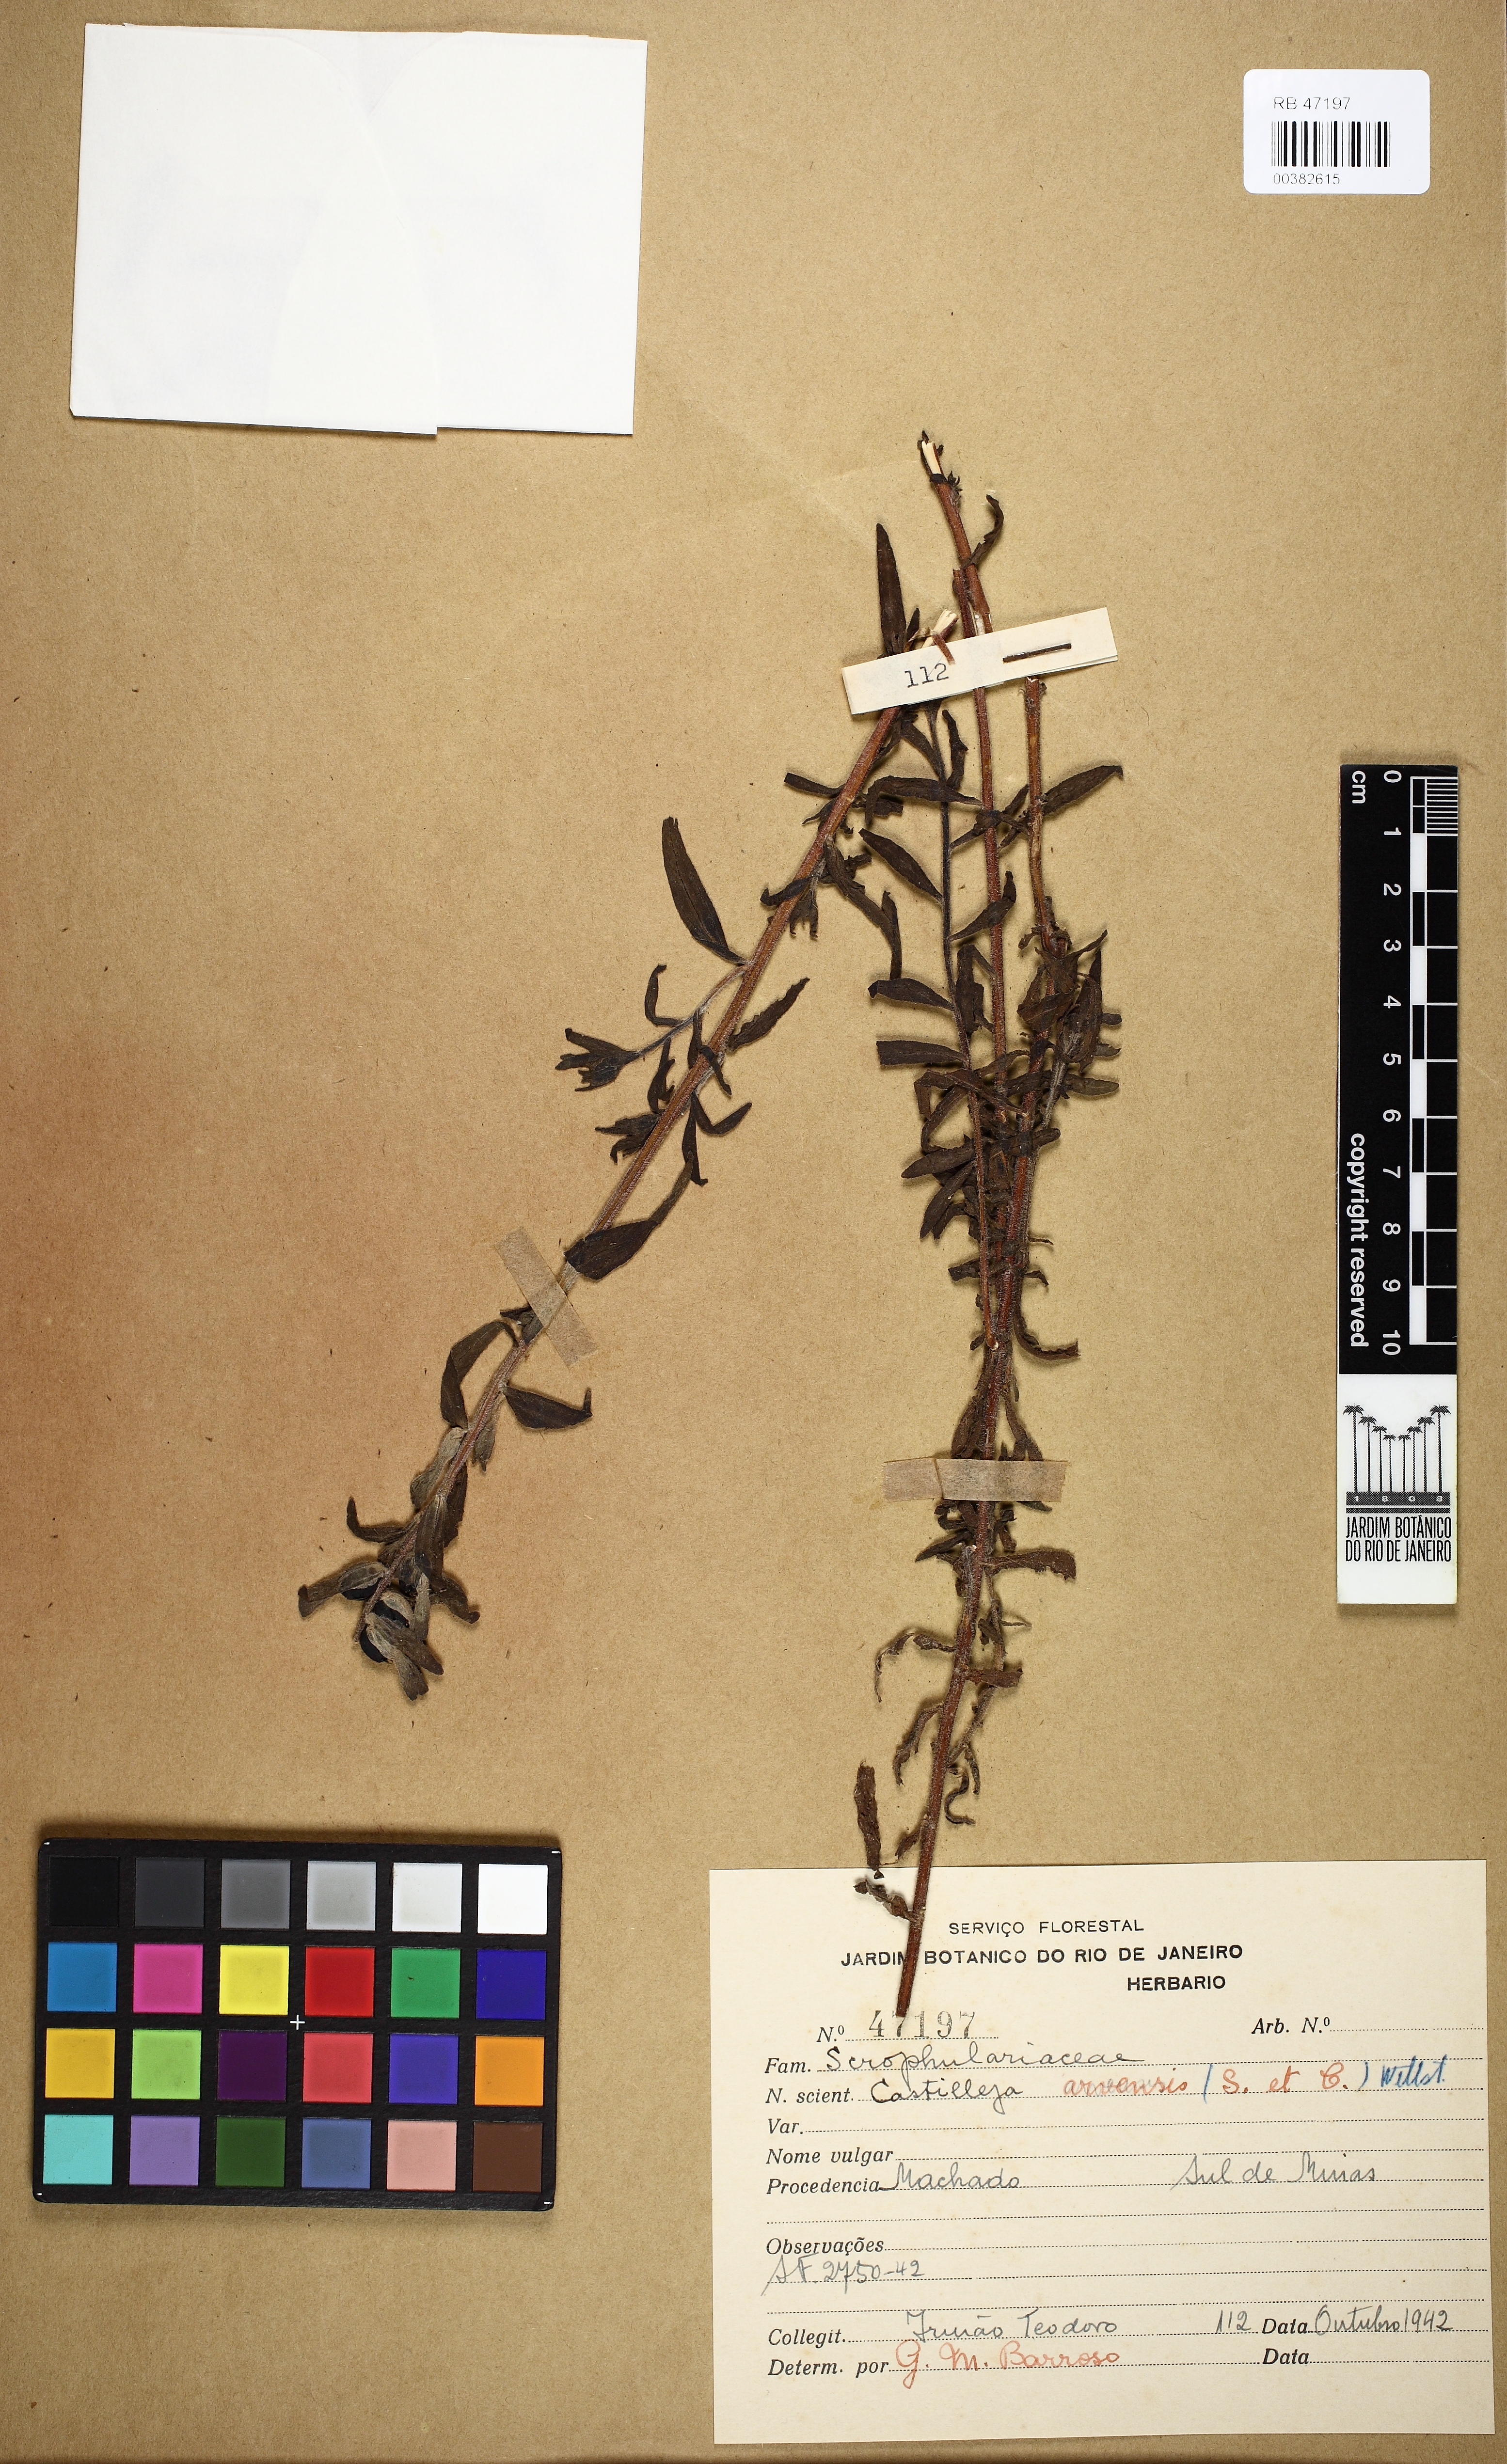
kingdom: Plantae
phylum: Tracheophyta
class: Magnoliopsida
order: Lamiales
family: Orobanchaceae
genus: Castilleja
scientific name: Castilleja arvensis
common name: Indian paintbrush
